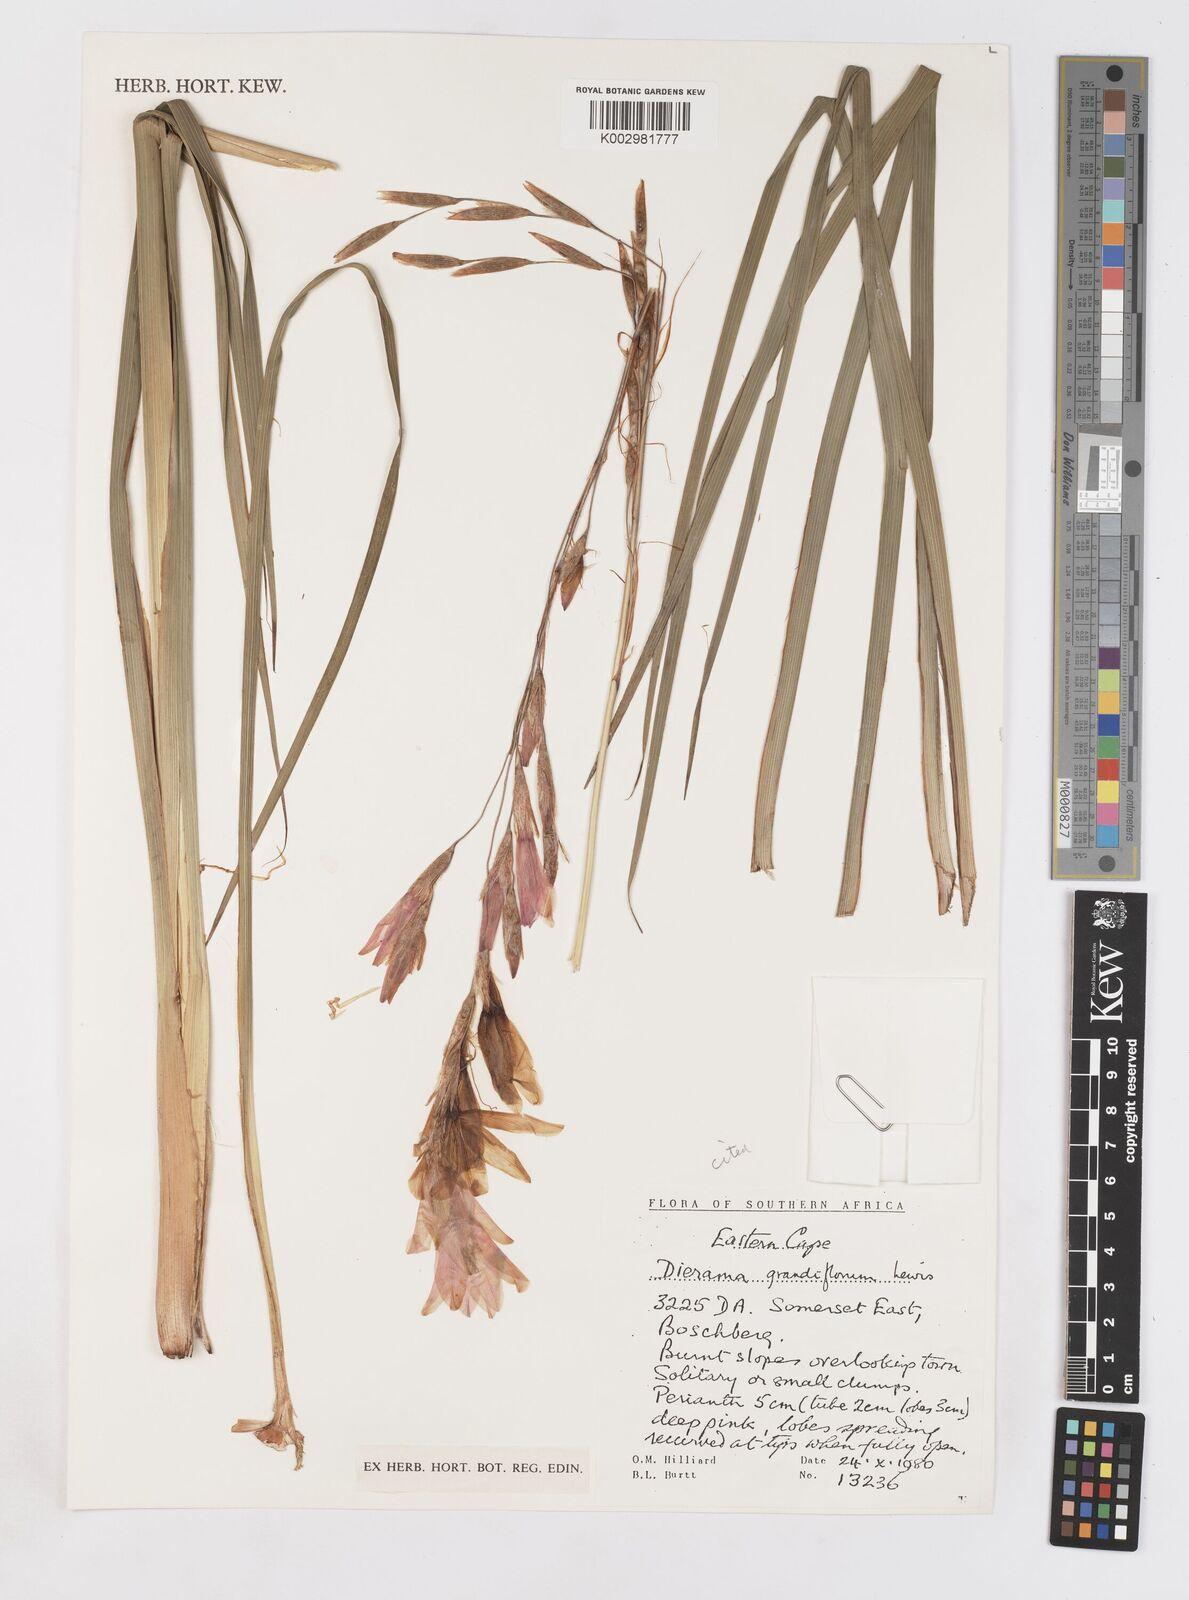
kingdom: Plantae
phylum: Tracheophyta
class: Liliopsida
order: Asparagales
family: Iridaceae
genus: Dierama
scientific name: Dierama grandiflorum
